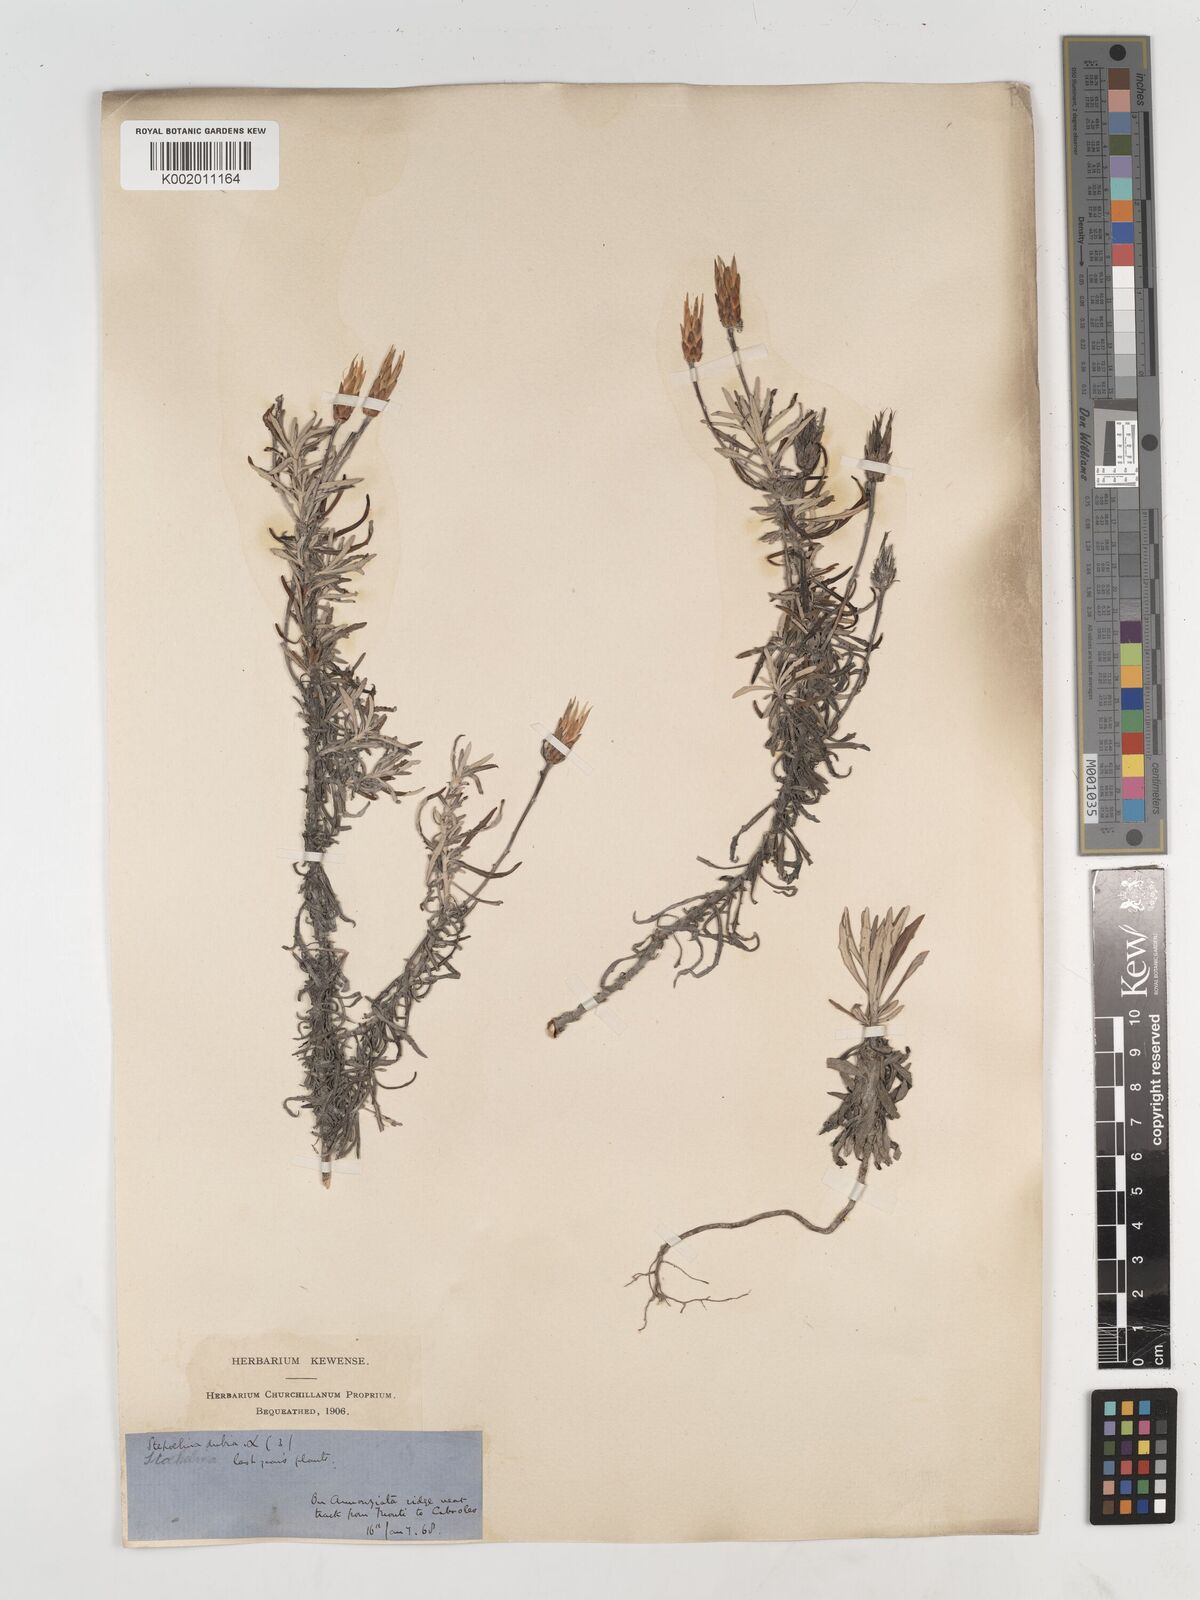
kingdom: Plantae
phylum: Tracheophyta
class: Magnoliopsida
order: Asterales
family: Asteraceae
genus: Staehelina
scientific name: Staehelina dubia
